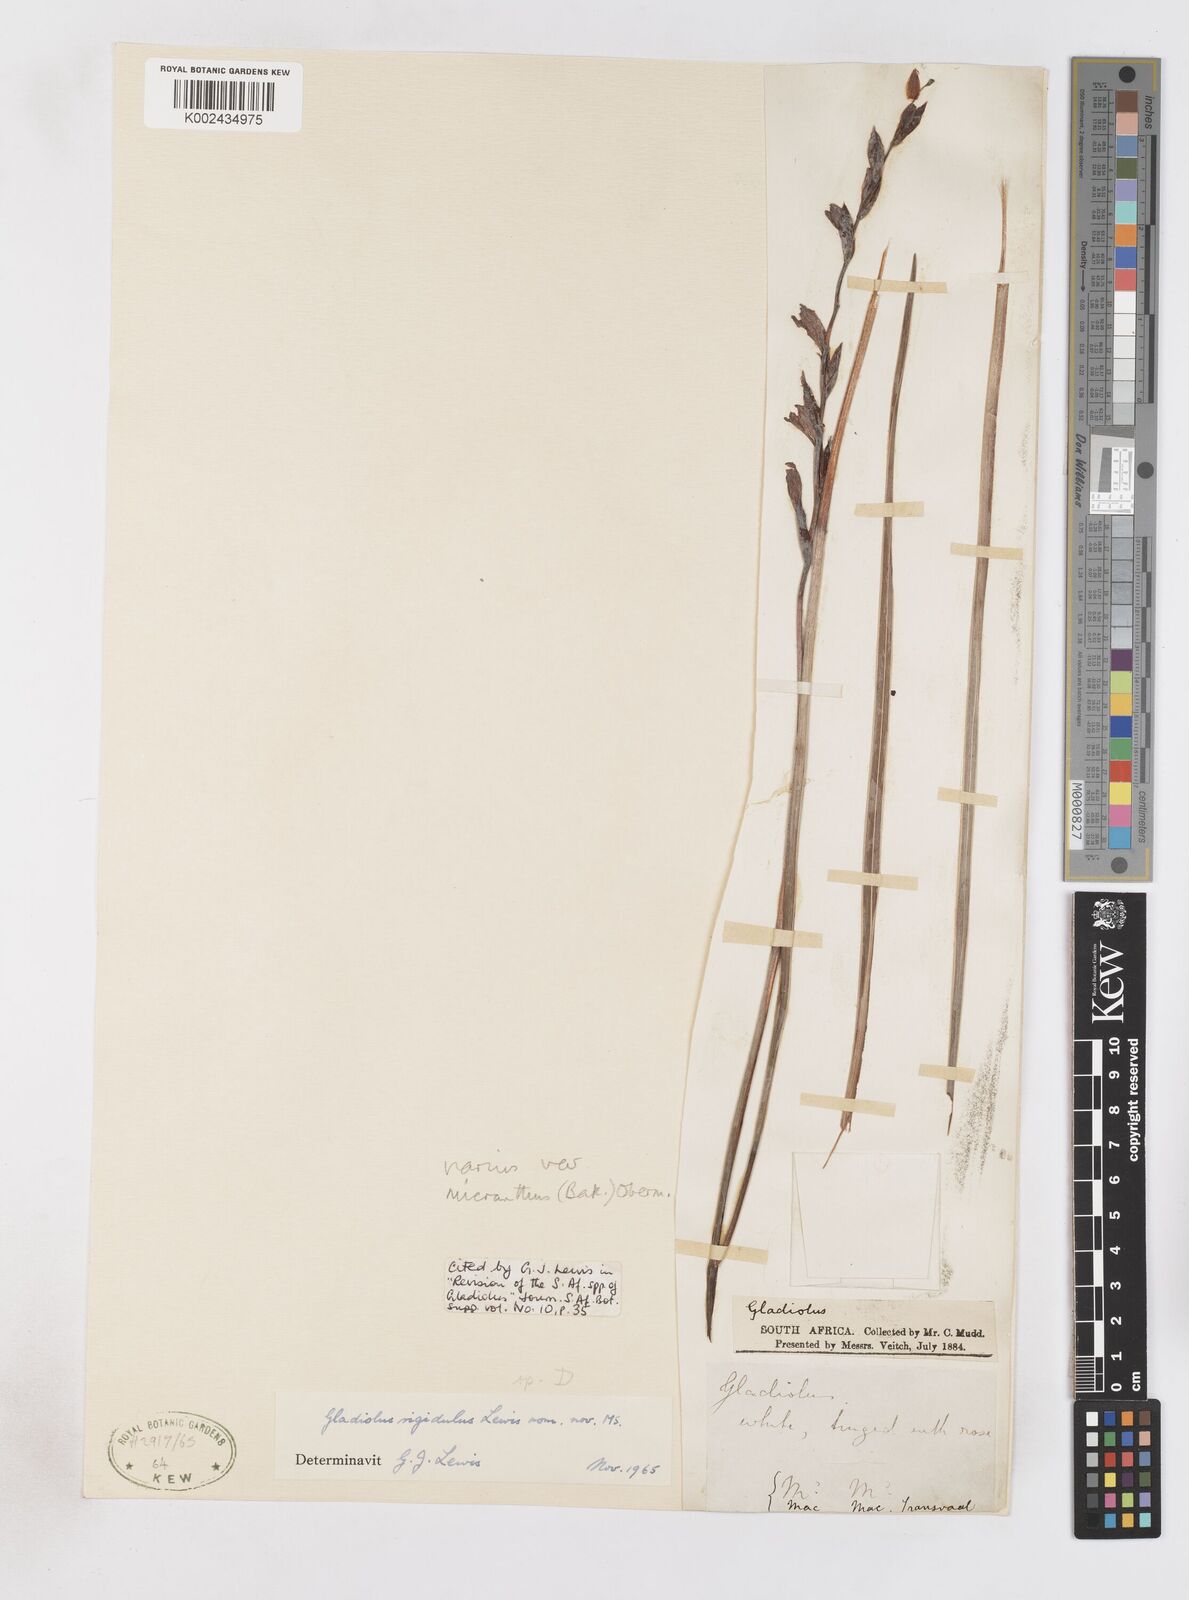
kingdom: Plantae
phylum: Tracheophyta
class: Liliopsida
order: Asparagales
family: Iridaceae
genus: Gladiolus
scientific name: Gladiolus ferrugineus
